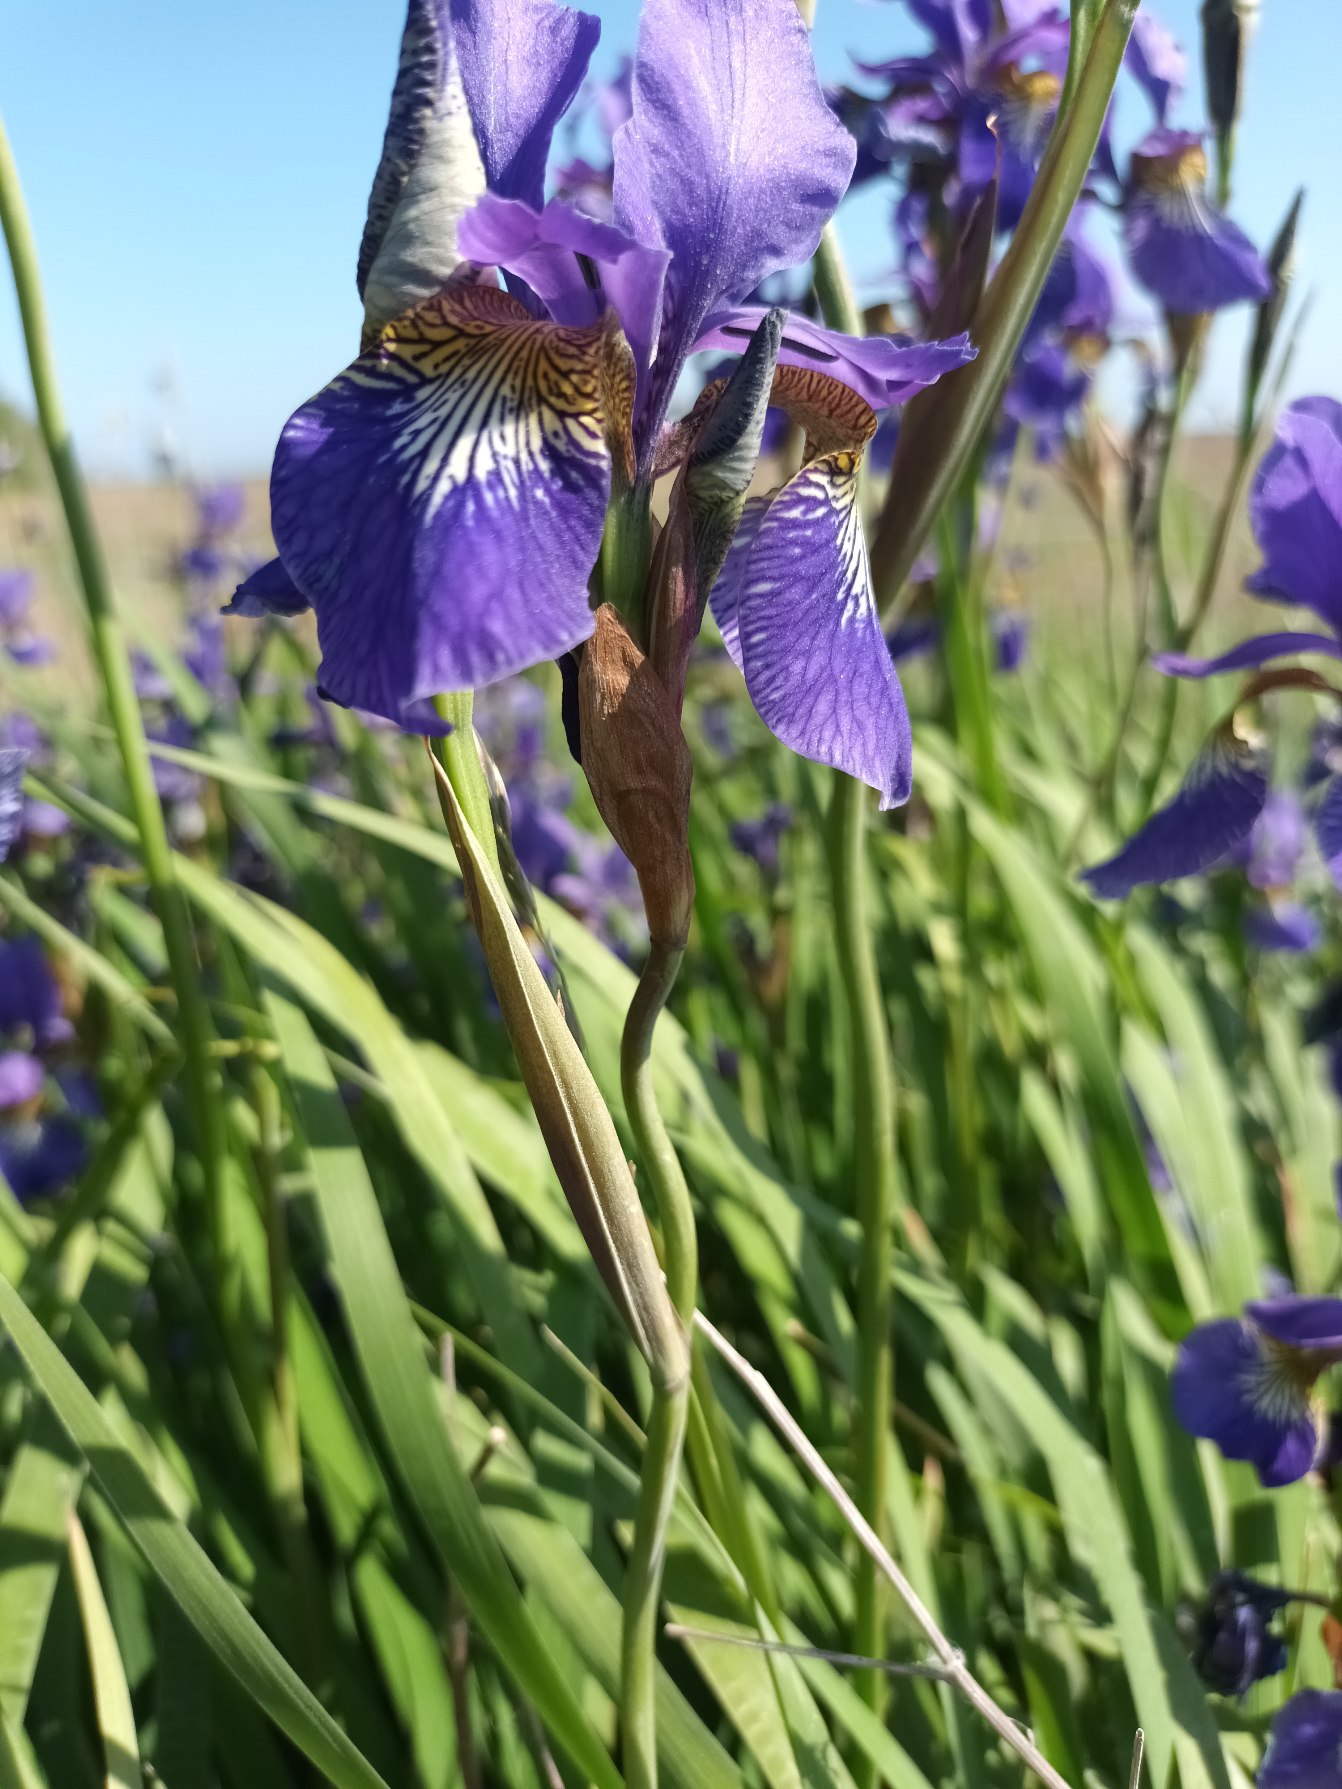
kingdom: Plantae
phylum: Tracheophyta
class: Liliopsida
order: Asparagales
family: Iridaceae
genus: Iris
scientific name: Iris delavayi
